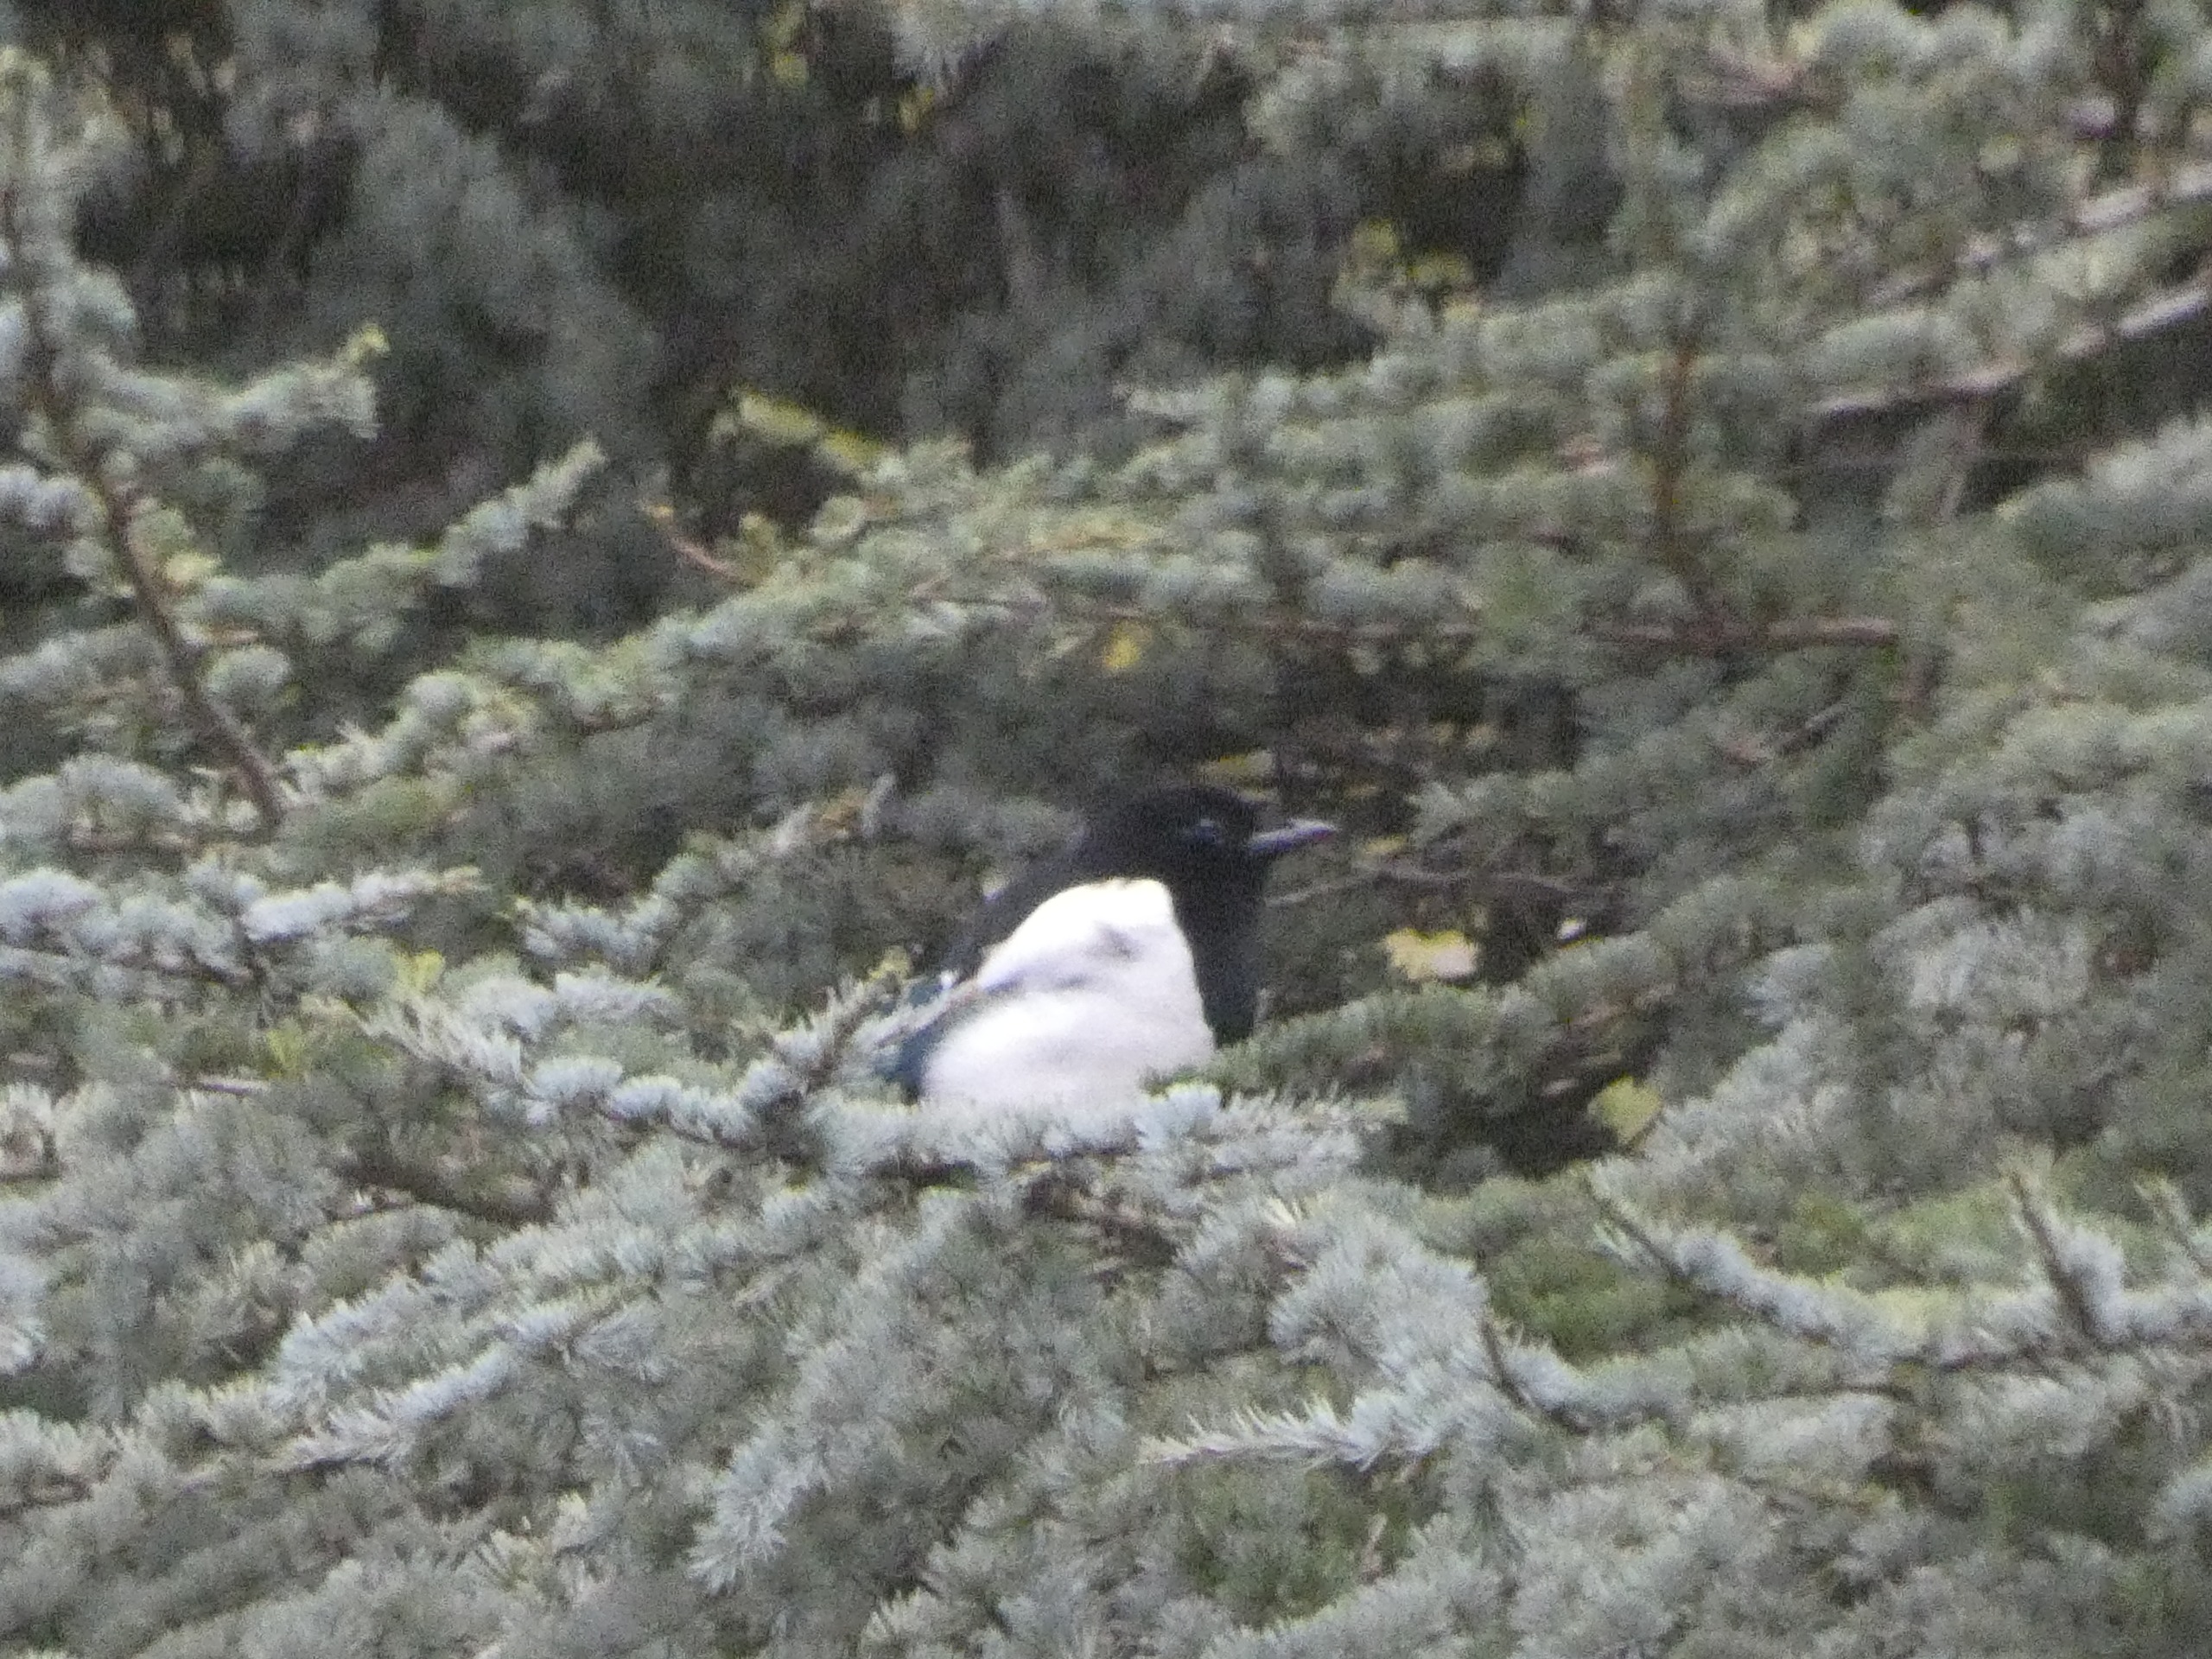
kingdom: Animalia
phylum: Chordata
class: Aves
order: Passeriformes
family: Corvidae
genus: Pica
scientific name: Pica pica
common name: Husskade
